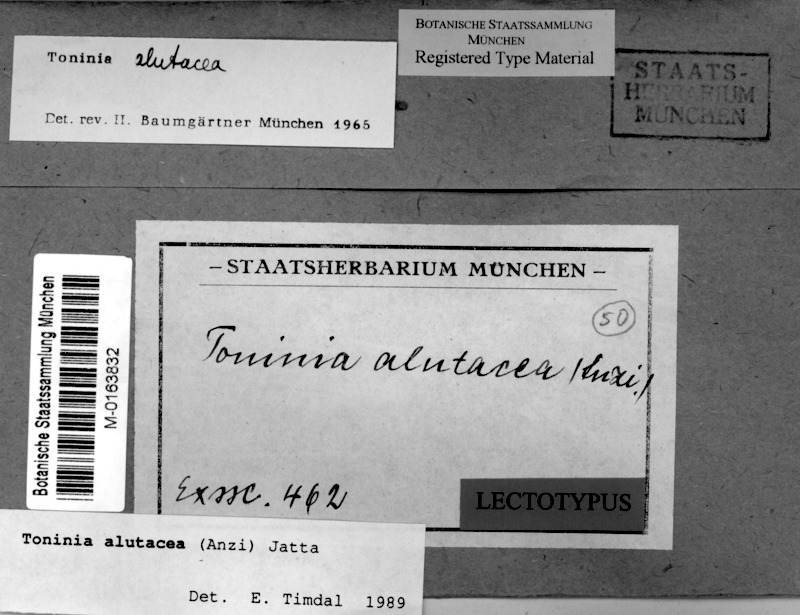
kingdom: Fungi
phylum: Ascomycota
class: Lecanoromycetes
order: Lecanorales
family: Ramalinaceae
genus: Toninia
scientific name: Toninia alutacea
